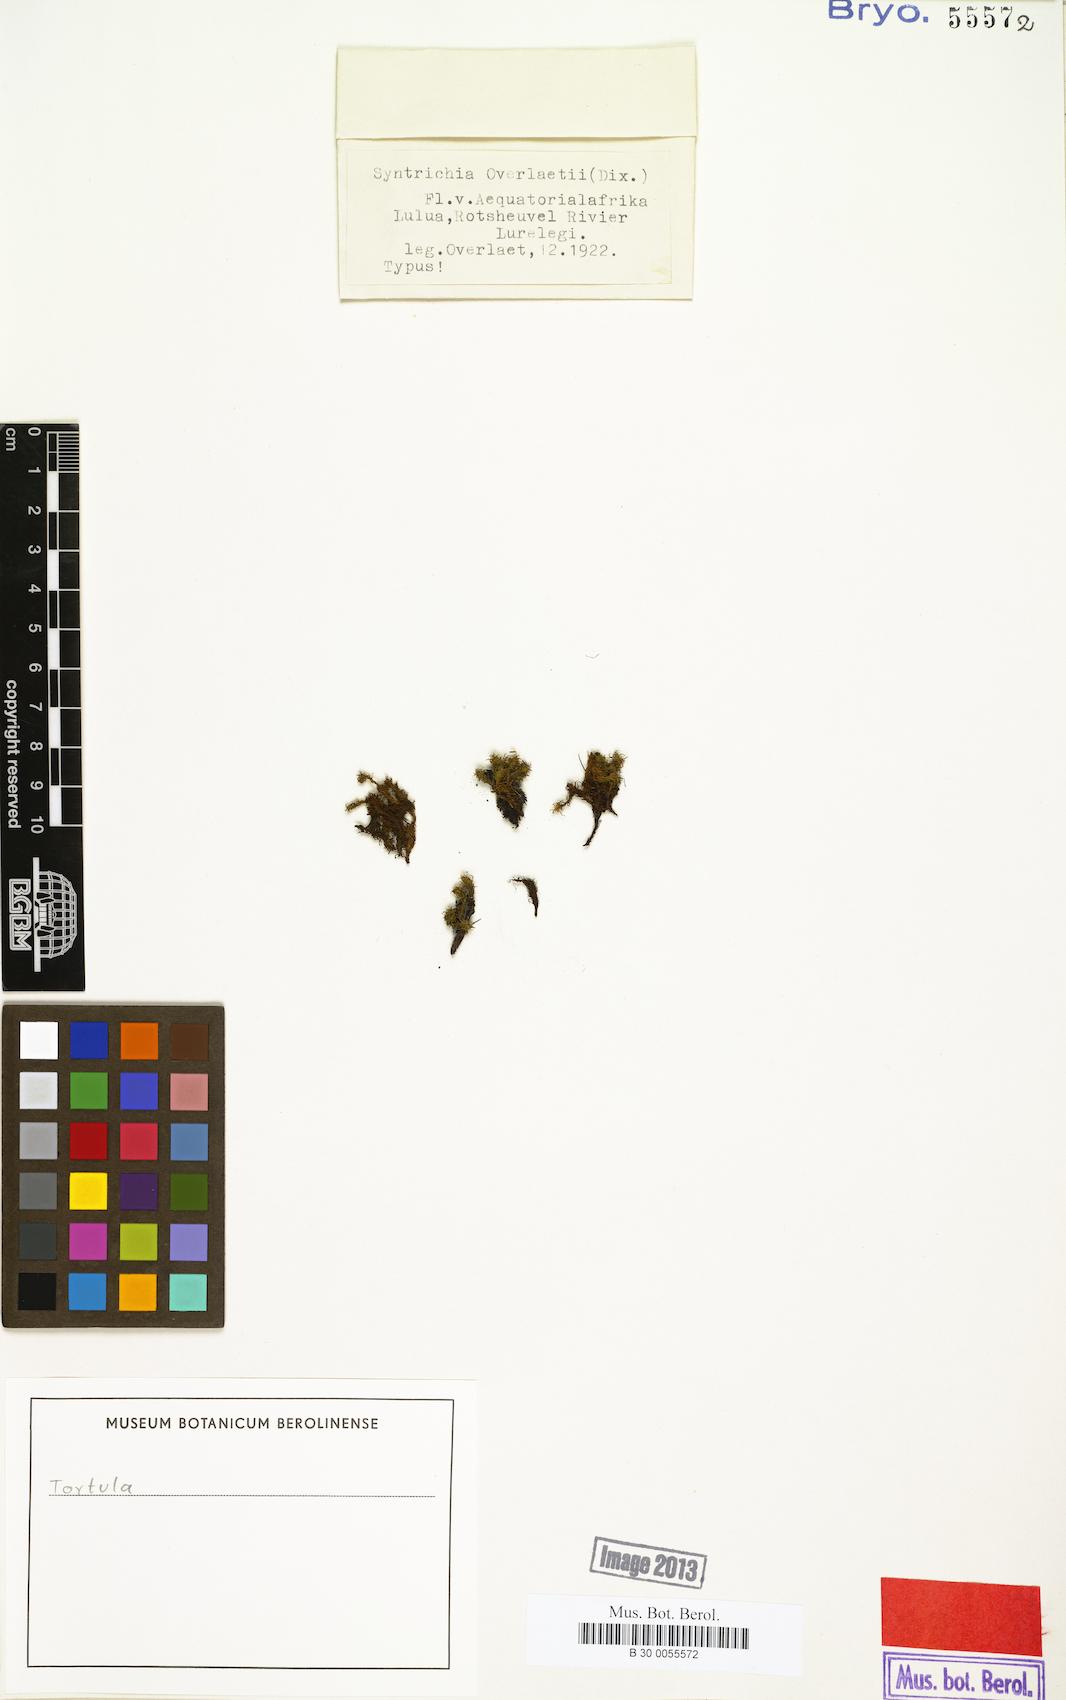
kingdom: Plantae
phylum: Bryophyta
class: Bryopsida
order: Pottiales
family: Pottiaceae
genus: Tortula
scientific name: Tortula
